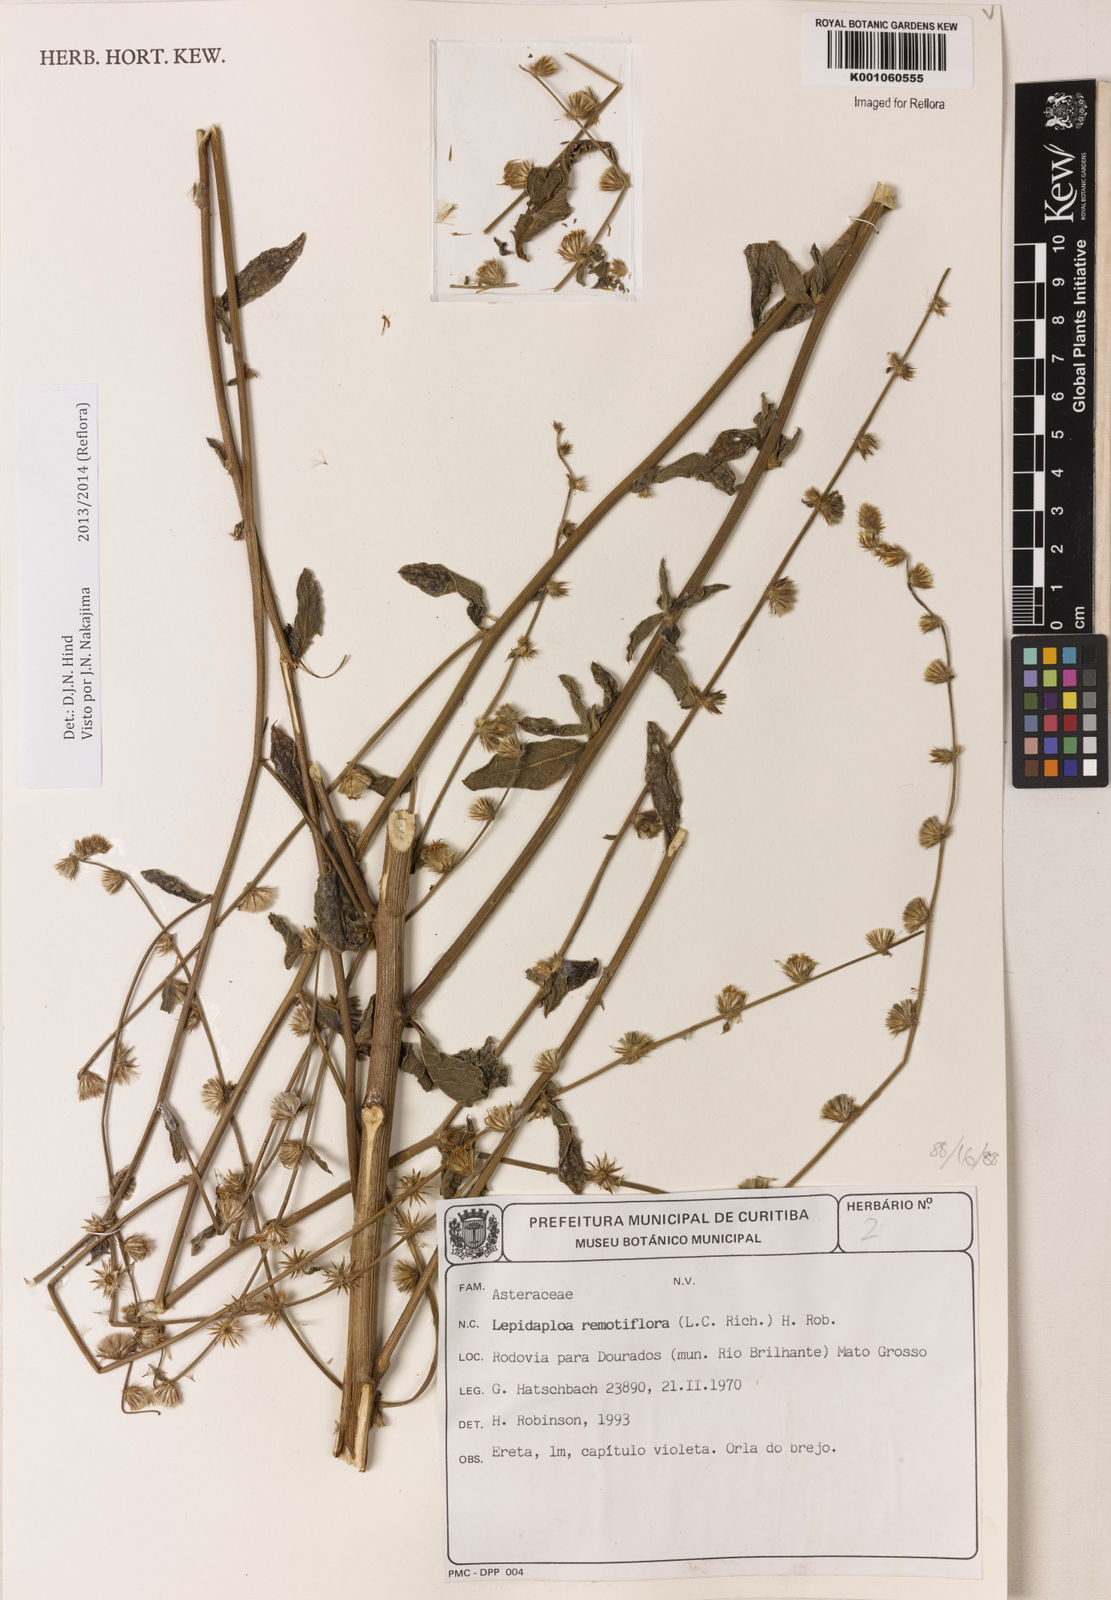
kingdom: Plantae
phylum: Tracheophyta
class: Magnoliopsida
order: Asterales
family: Asteraceae
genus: Lepidaploa
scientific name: Lepidaploa remotiflora
